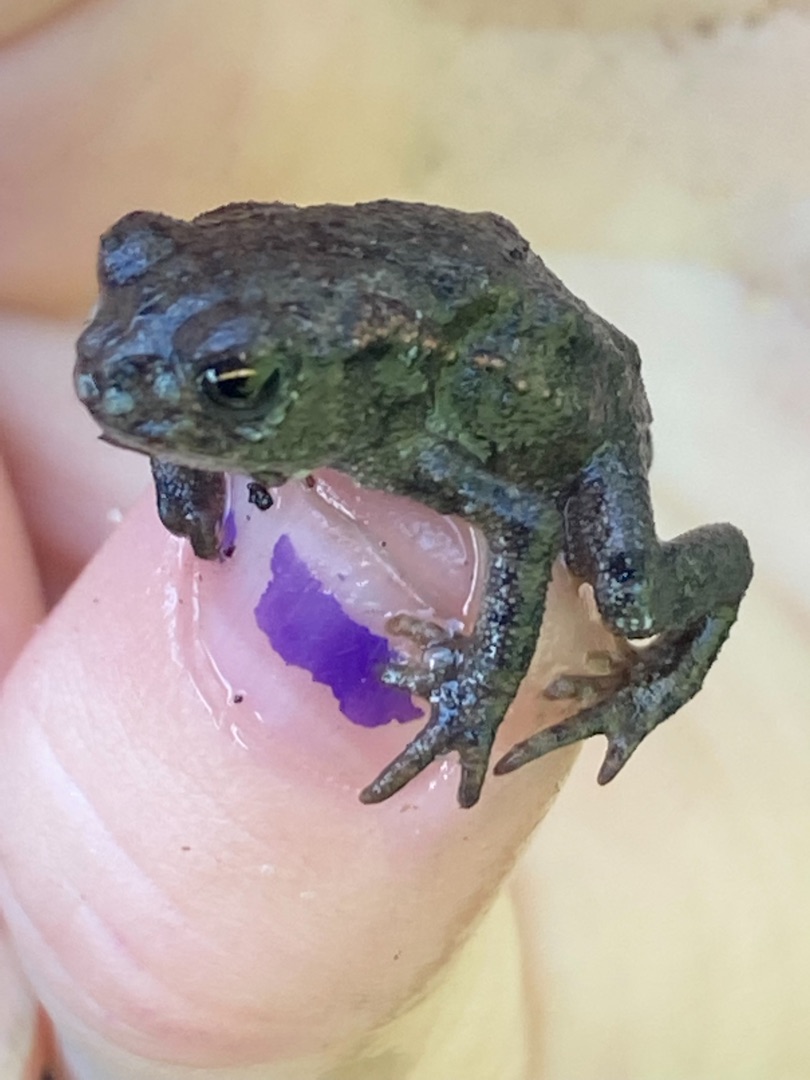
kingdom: Animalia
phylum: Chordata
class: Amphibia
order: Anura
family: Bufonidae
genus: Bufo
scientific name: Bufo bufo
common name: Skrubtudse
